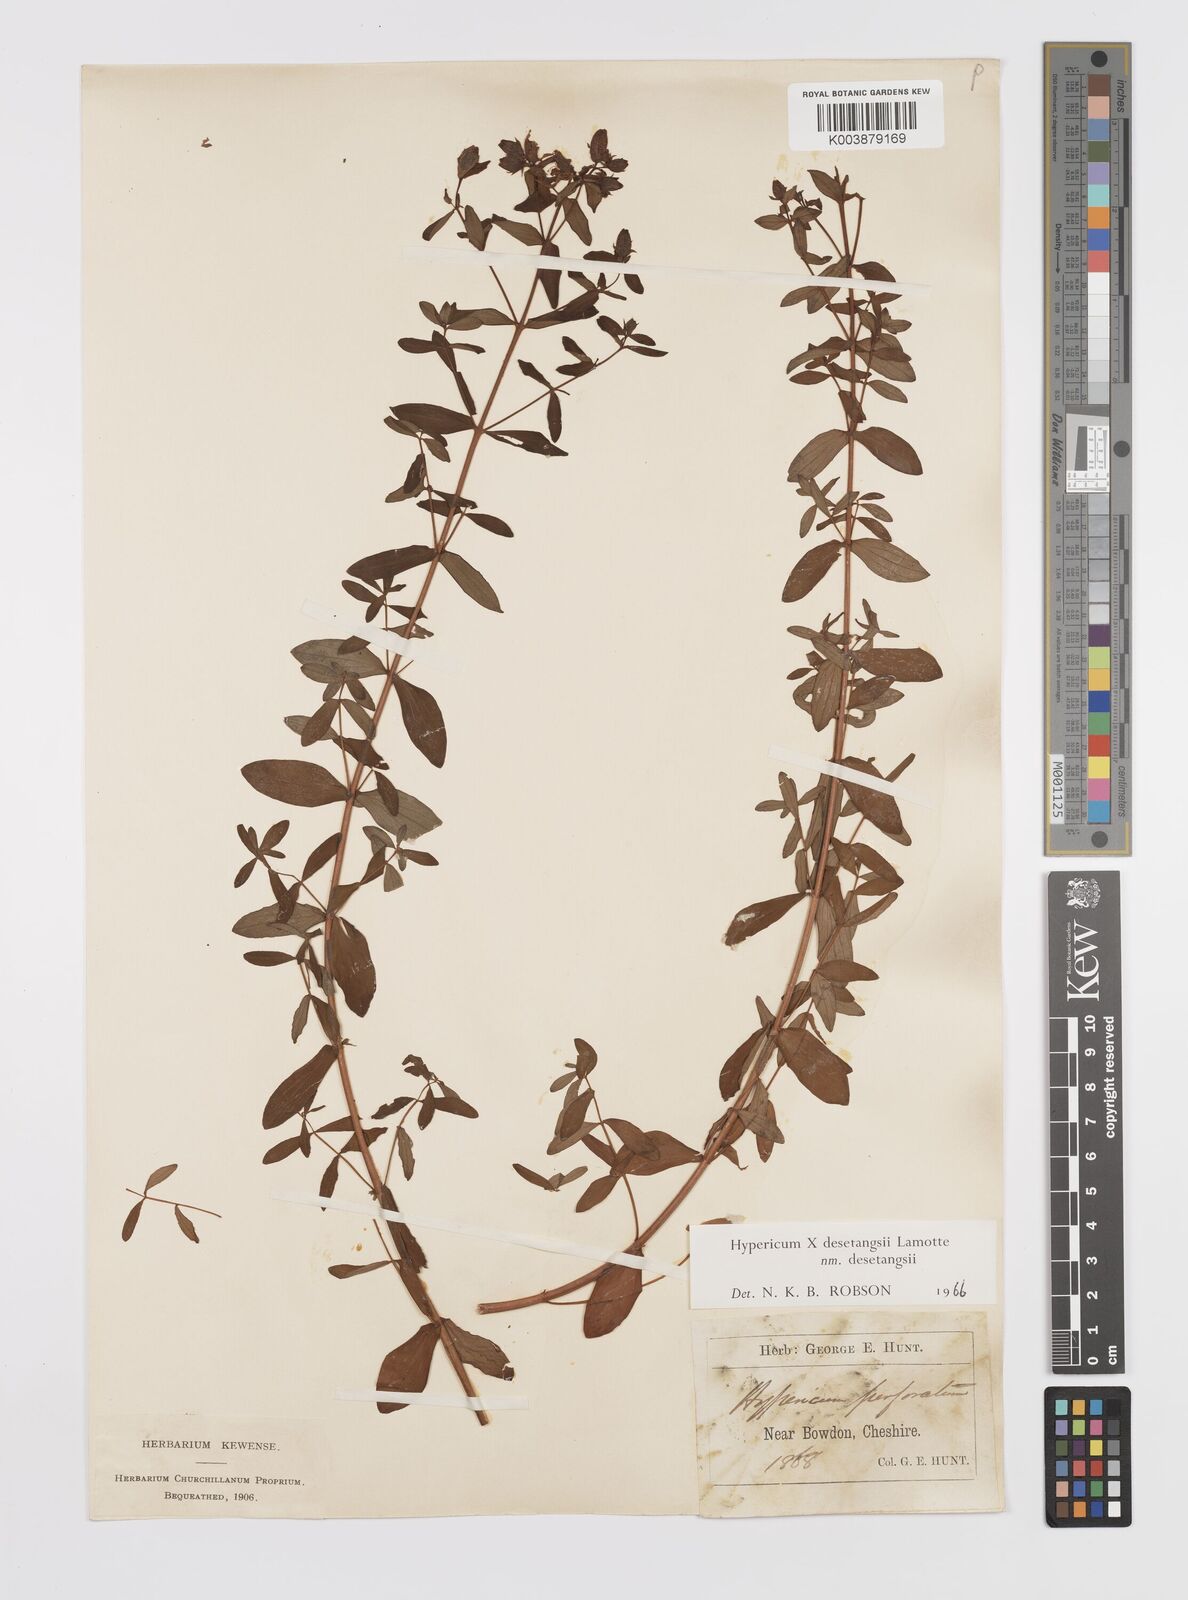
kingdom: Plantae
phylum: Tracheophyta
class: Magnoliopsida
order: Malpighiales
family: Hypericaceae
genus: Hypericum
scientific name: Hypericum undulatum
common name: Wavy st. john's-wort
